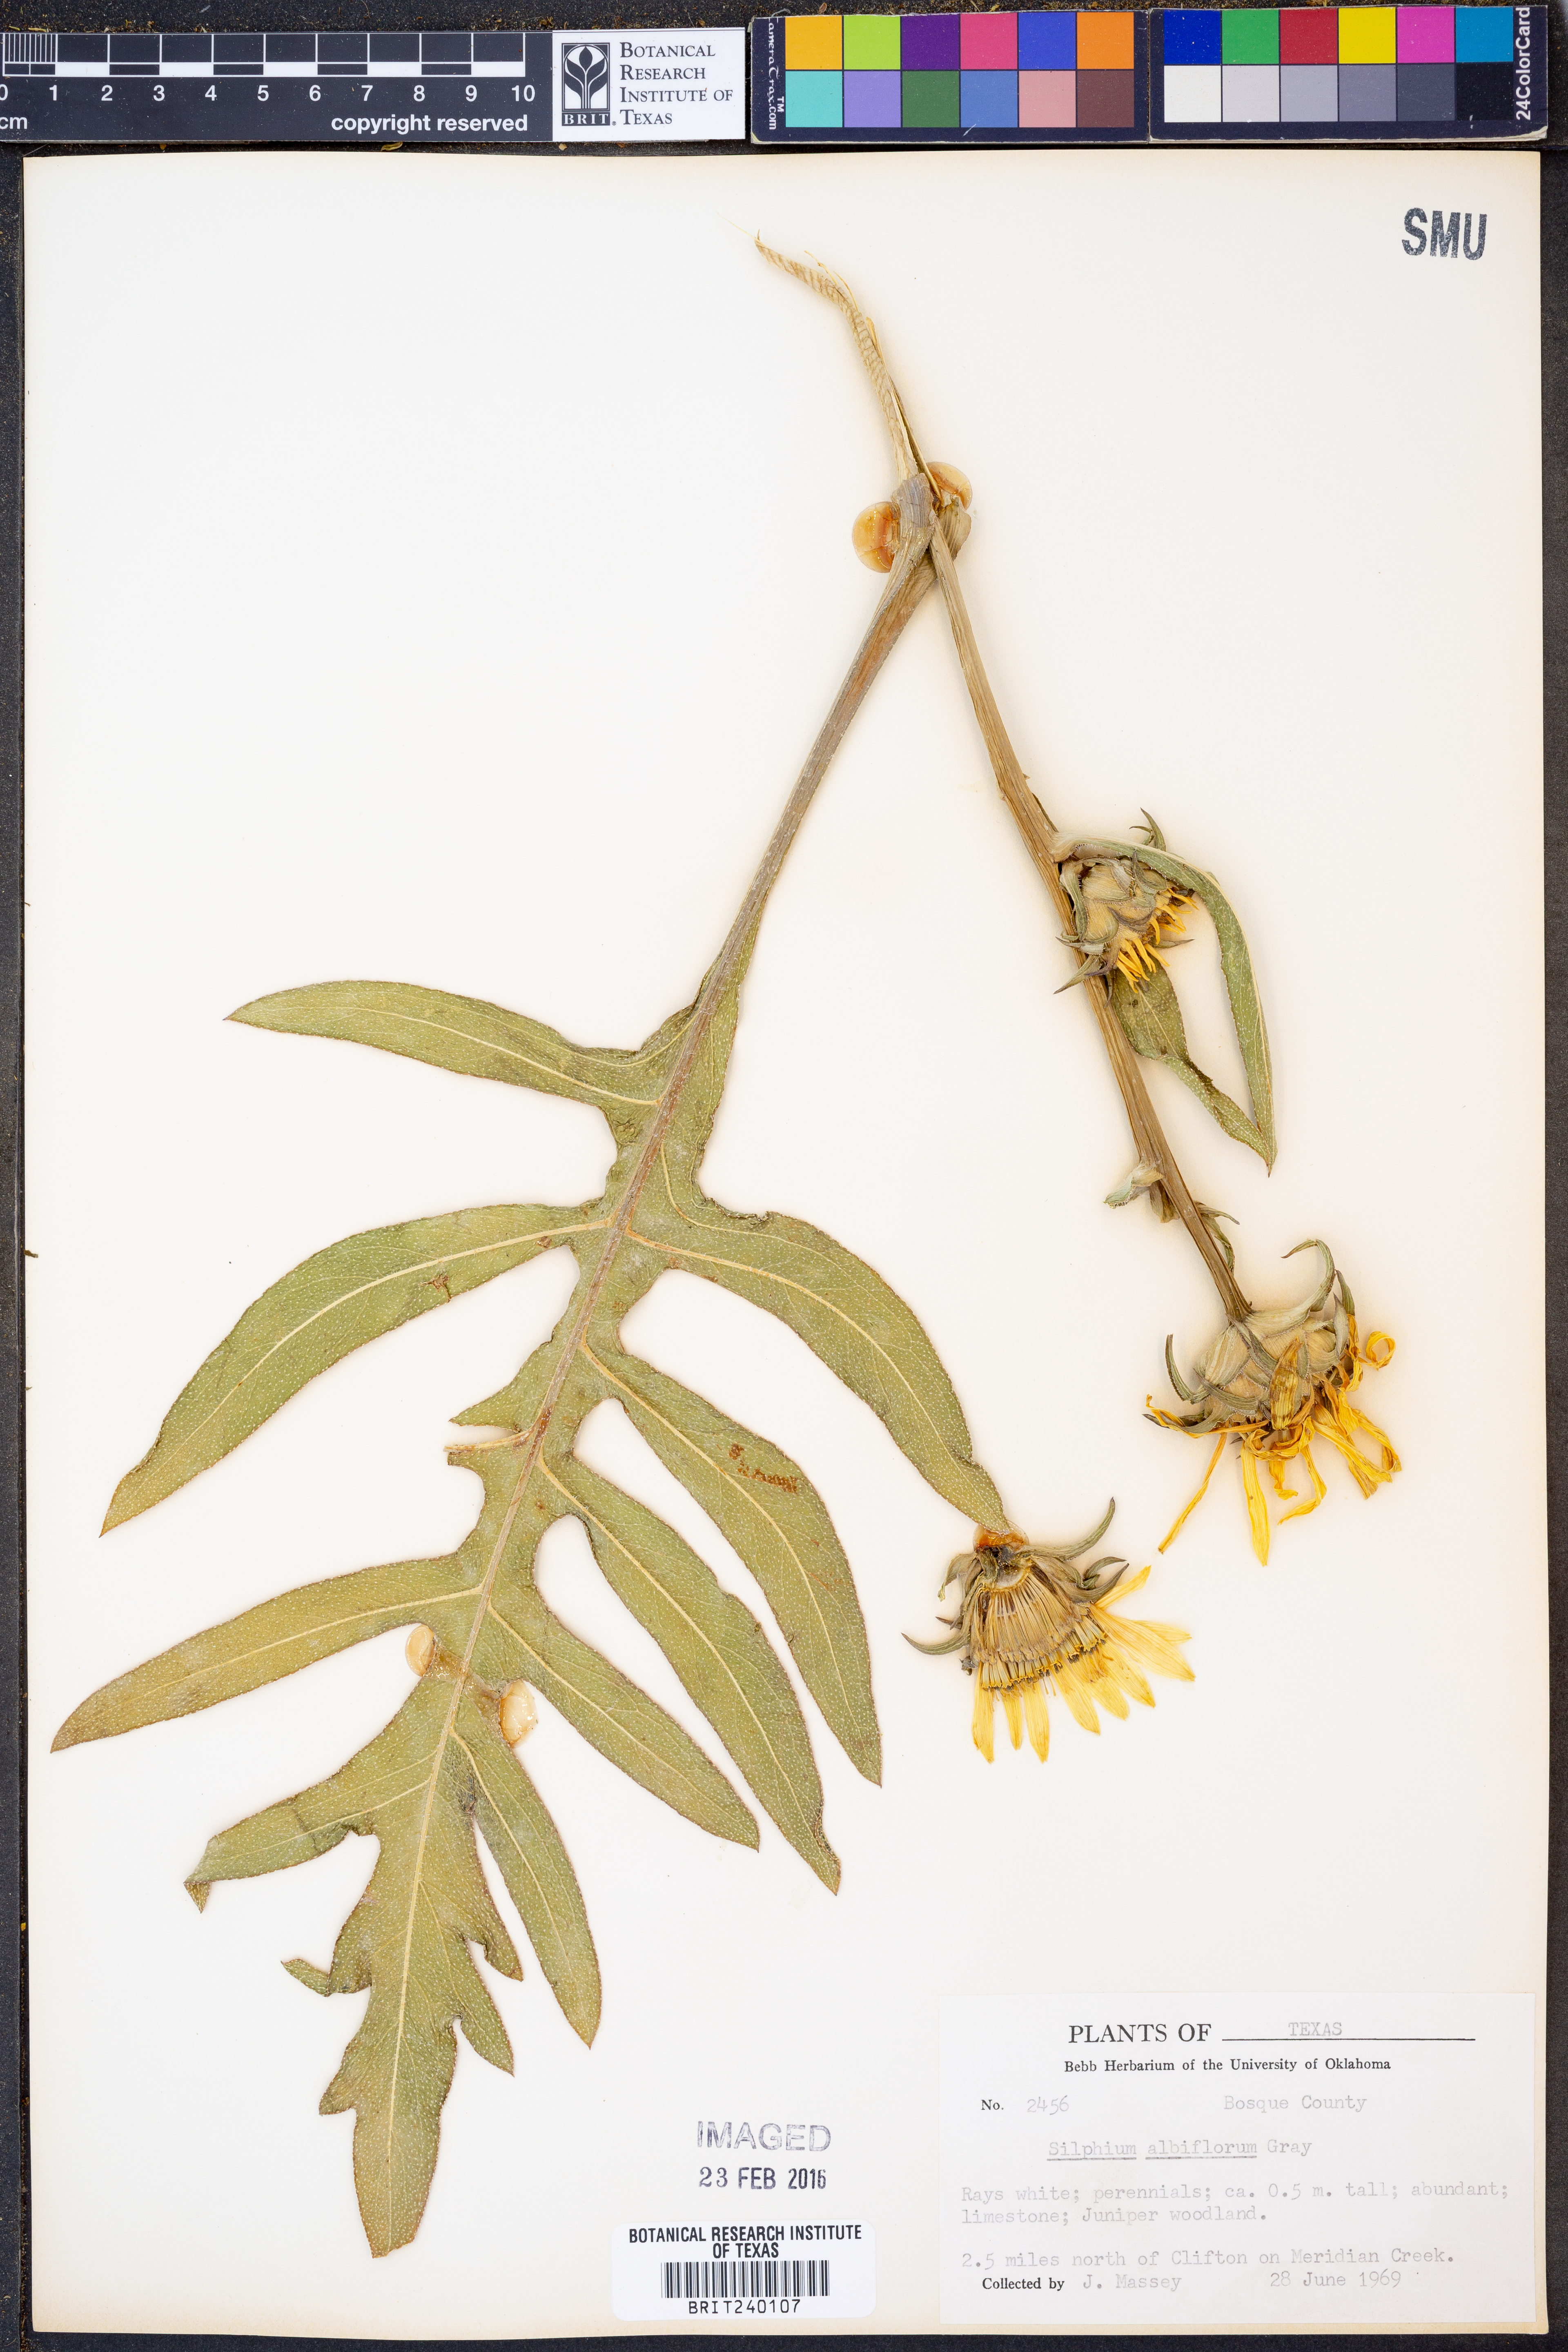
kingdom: Plantae
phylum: Tracheophyta
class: Magnoliopsida
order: Asterales
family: Asteraceae
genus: Silphium
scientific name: Silphium albiflorum
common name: White rosinweed
